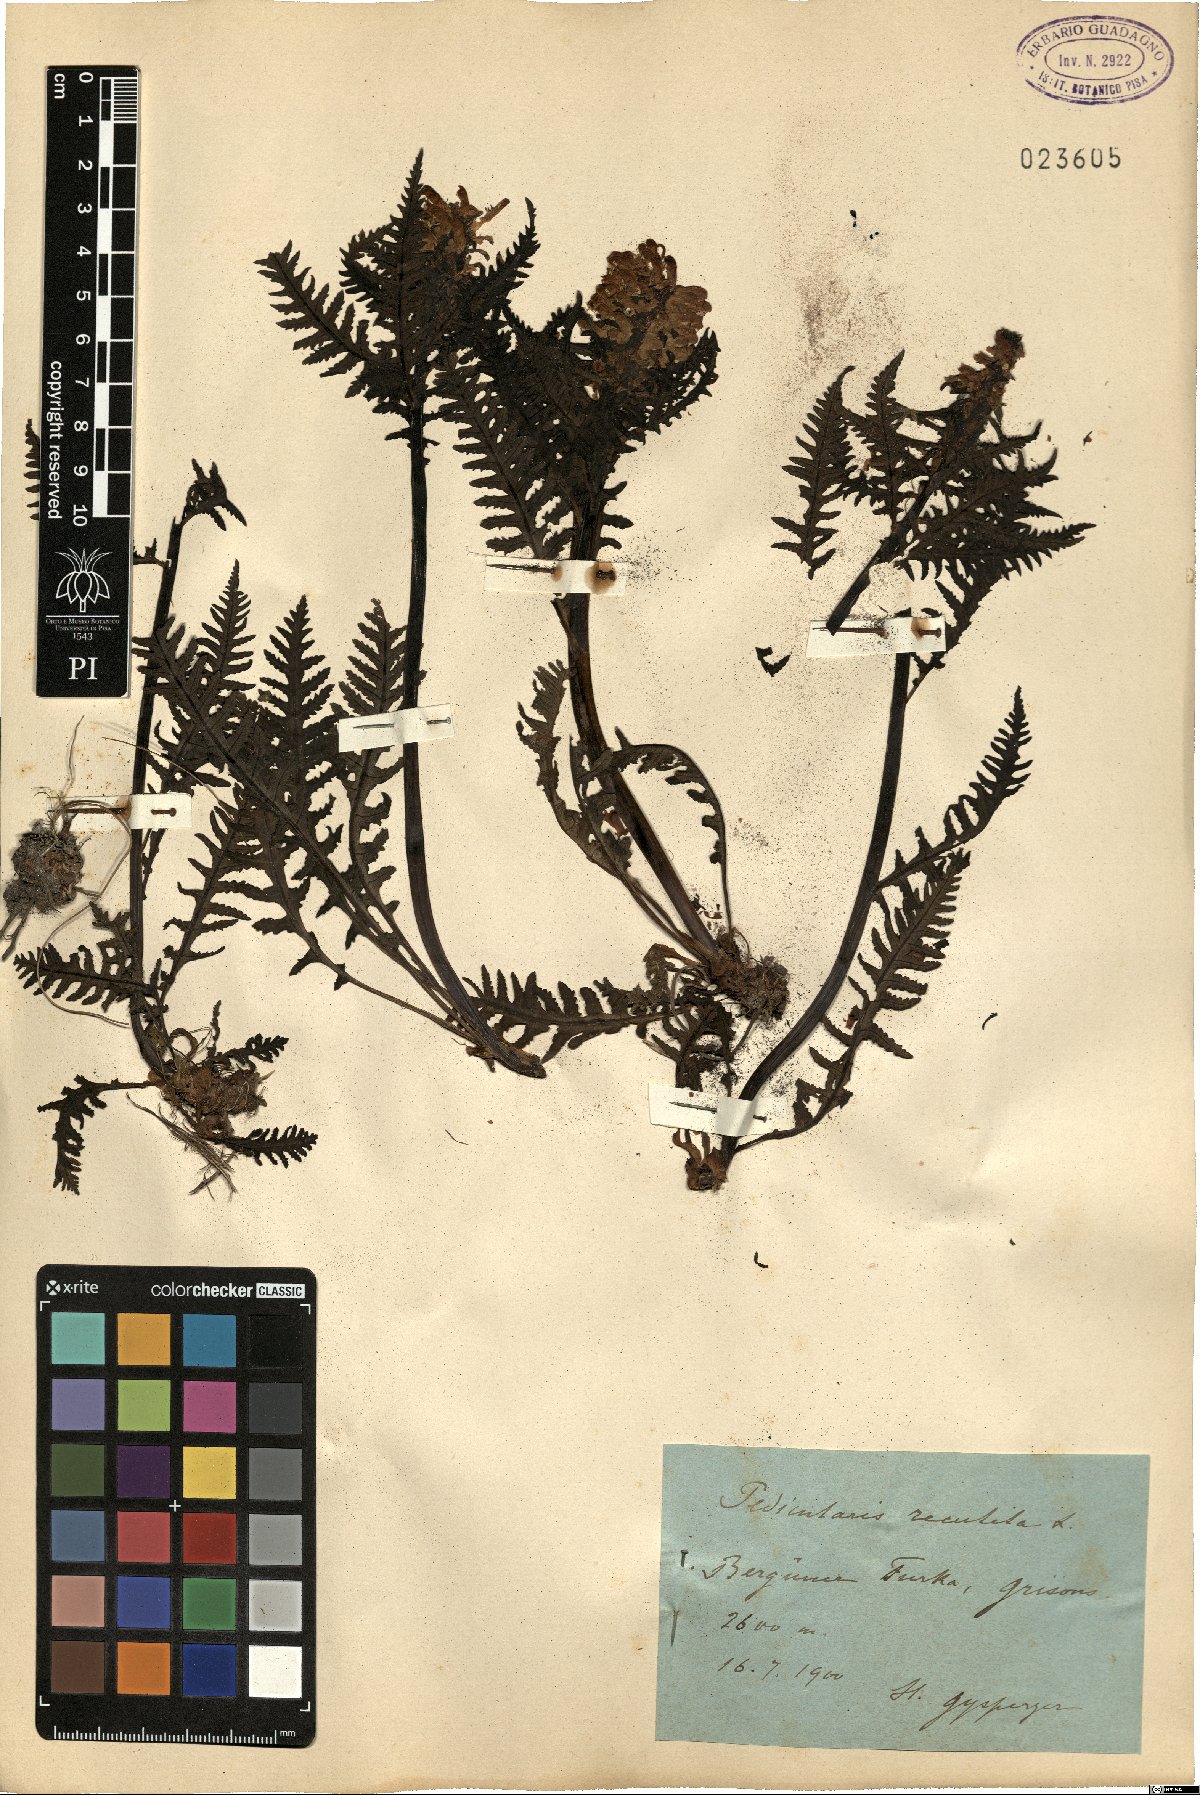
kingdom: Plantae
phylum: Tracheophyta
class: Magnoliopsida
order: Lamiales
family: Orobanchaceae
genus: Pedicularis
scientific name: Pedicularis recutita
